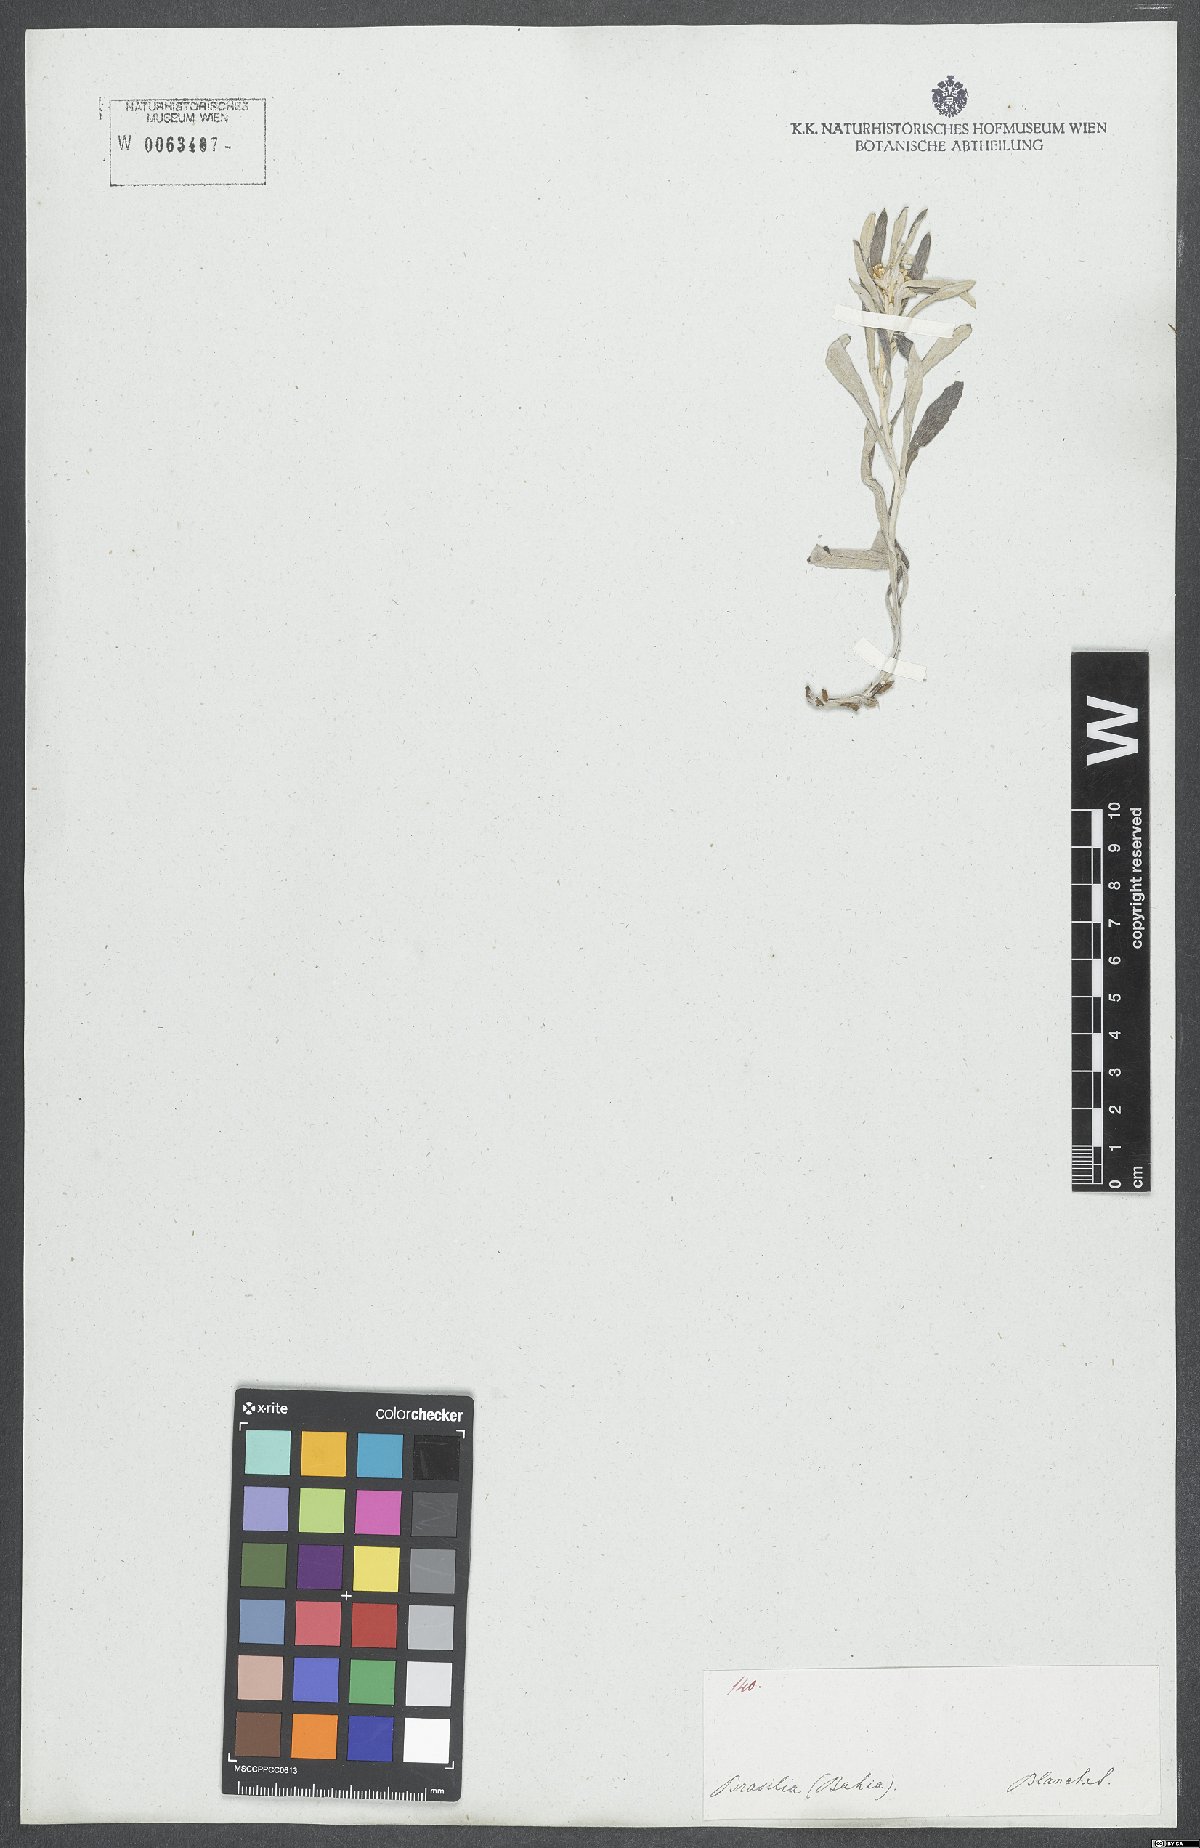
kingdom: Plantae
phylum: Tracheophyta
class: Magnoliopsida
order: Asterales
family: Asteraceae
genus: Gamochaeta
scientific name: Gamochaeta simplicicaulis
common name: Simple-stem everlasting
